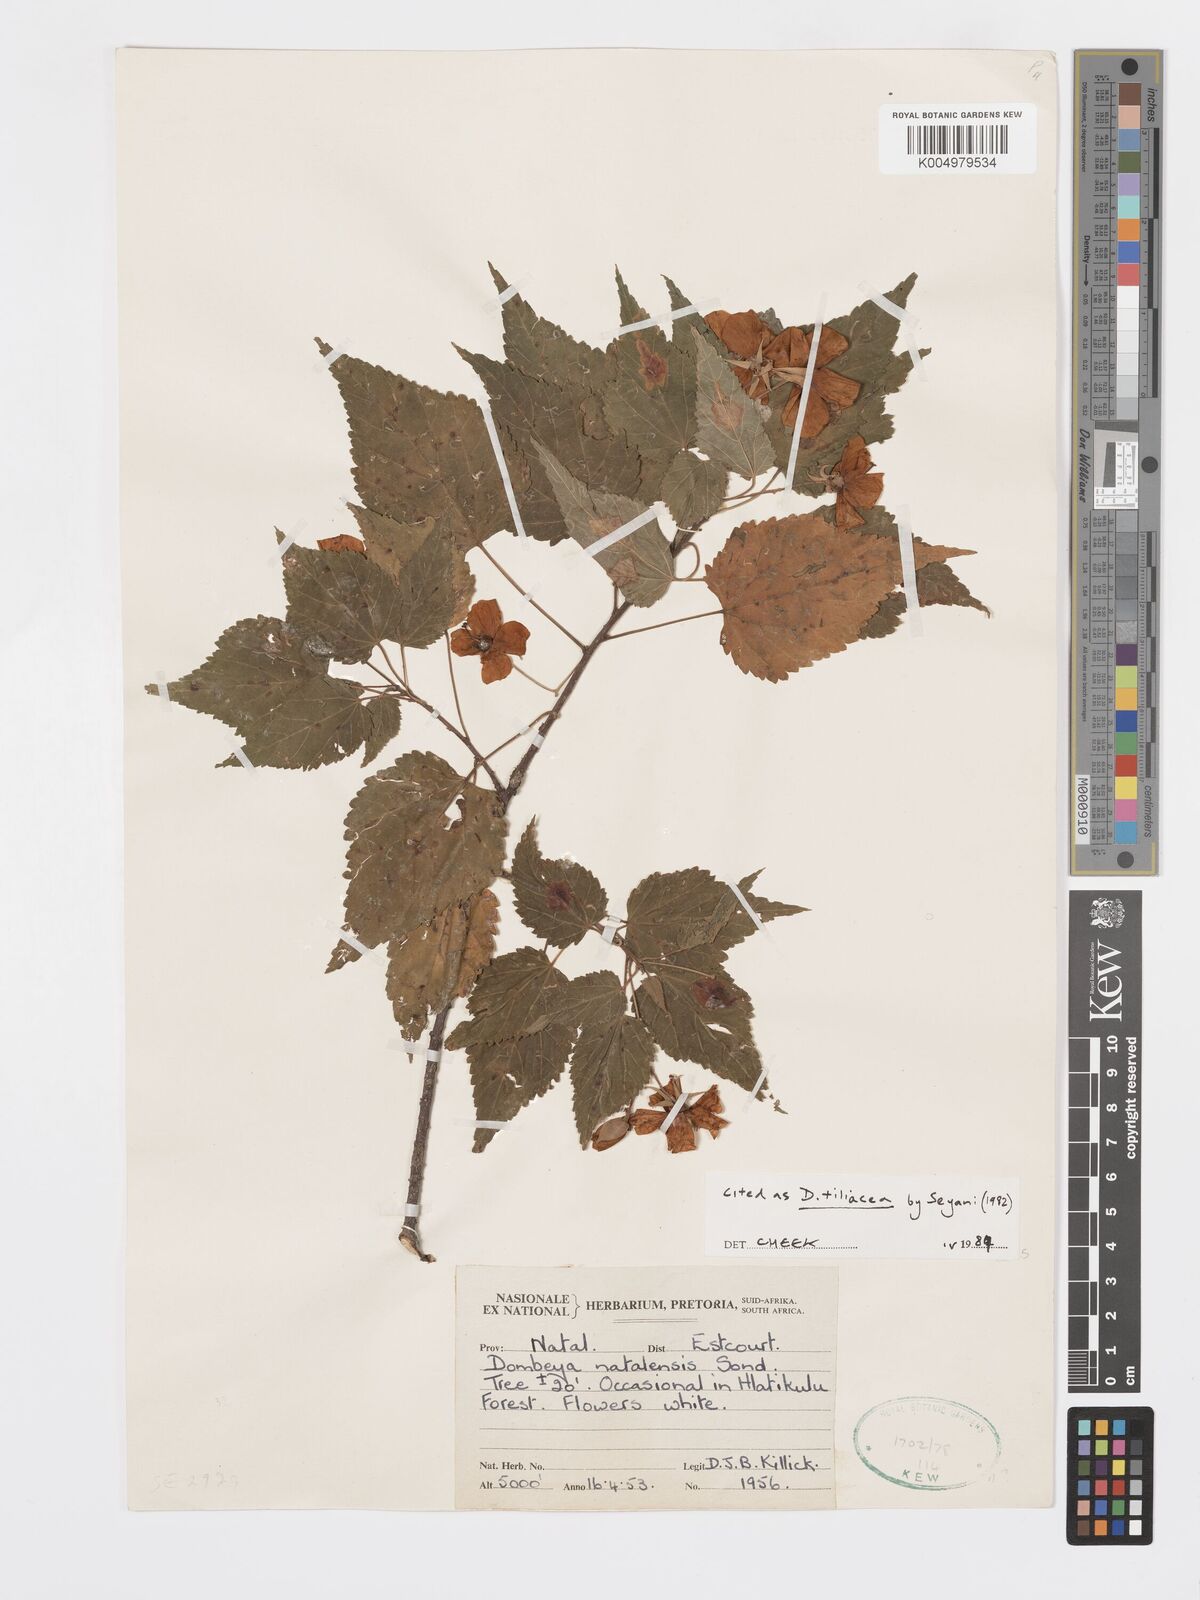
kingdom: Plantae
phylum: Tracheophyta
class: Magnoliopsida
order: Malvales
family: Malvaceae
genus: Dombeya
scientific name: Dombeya tiliacea
